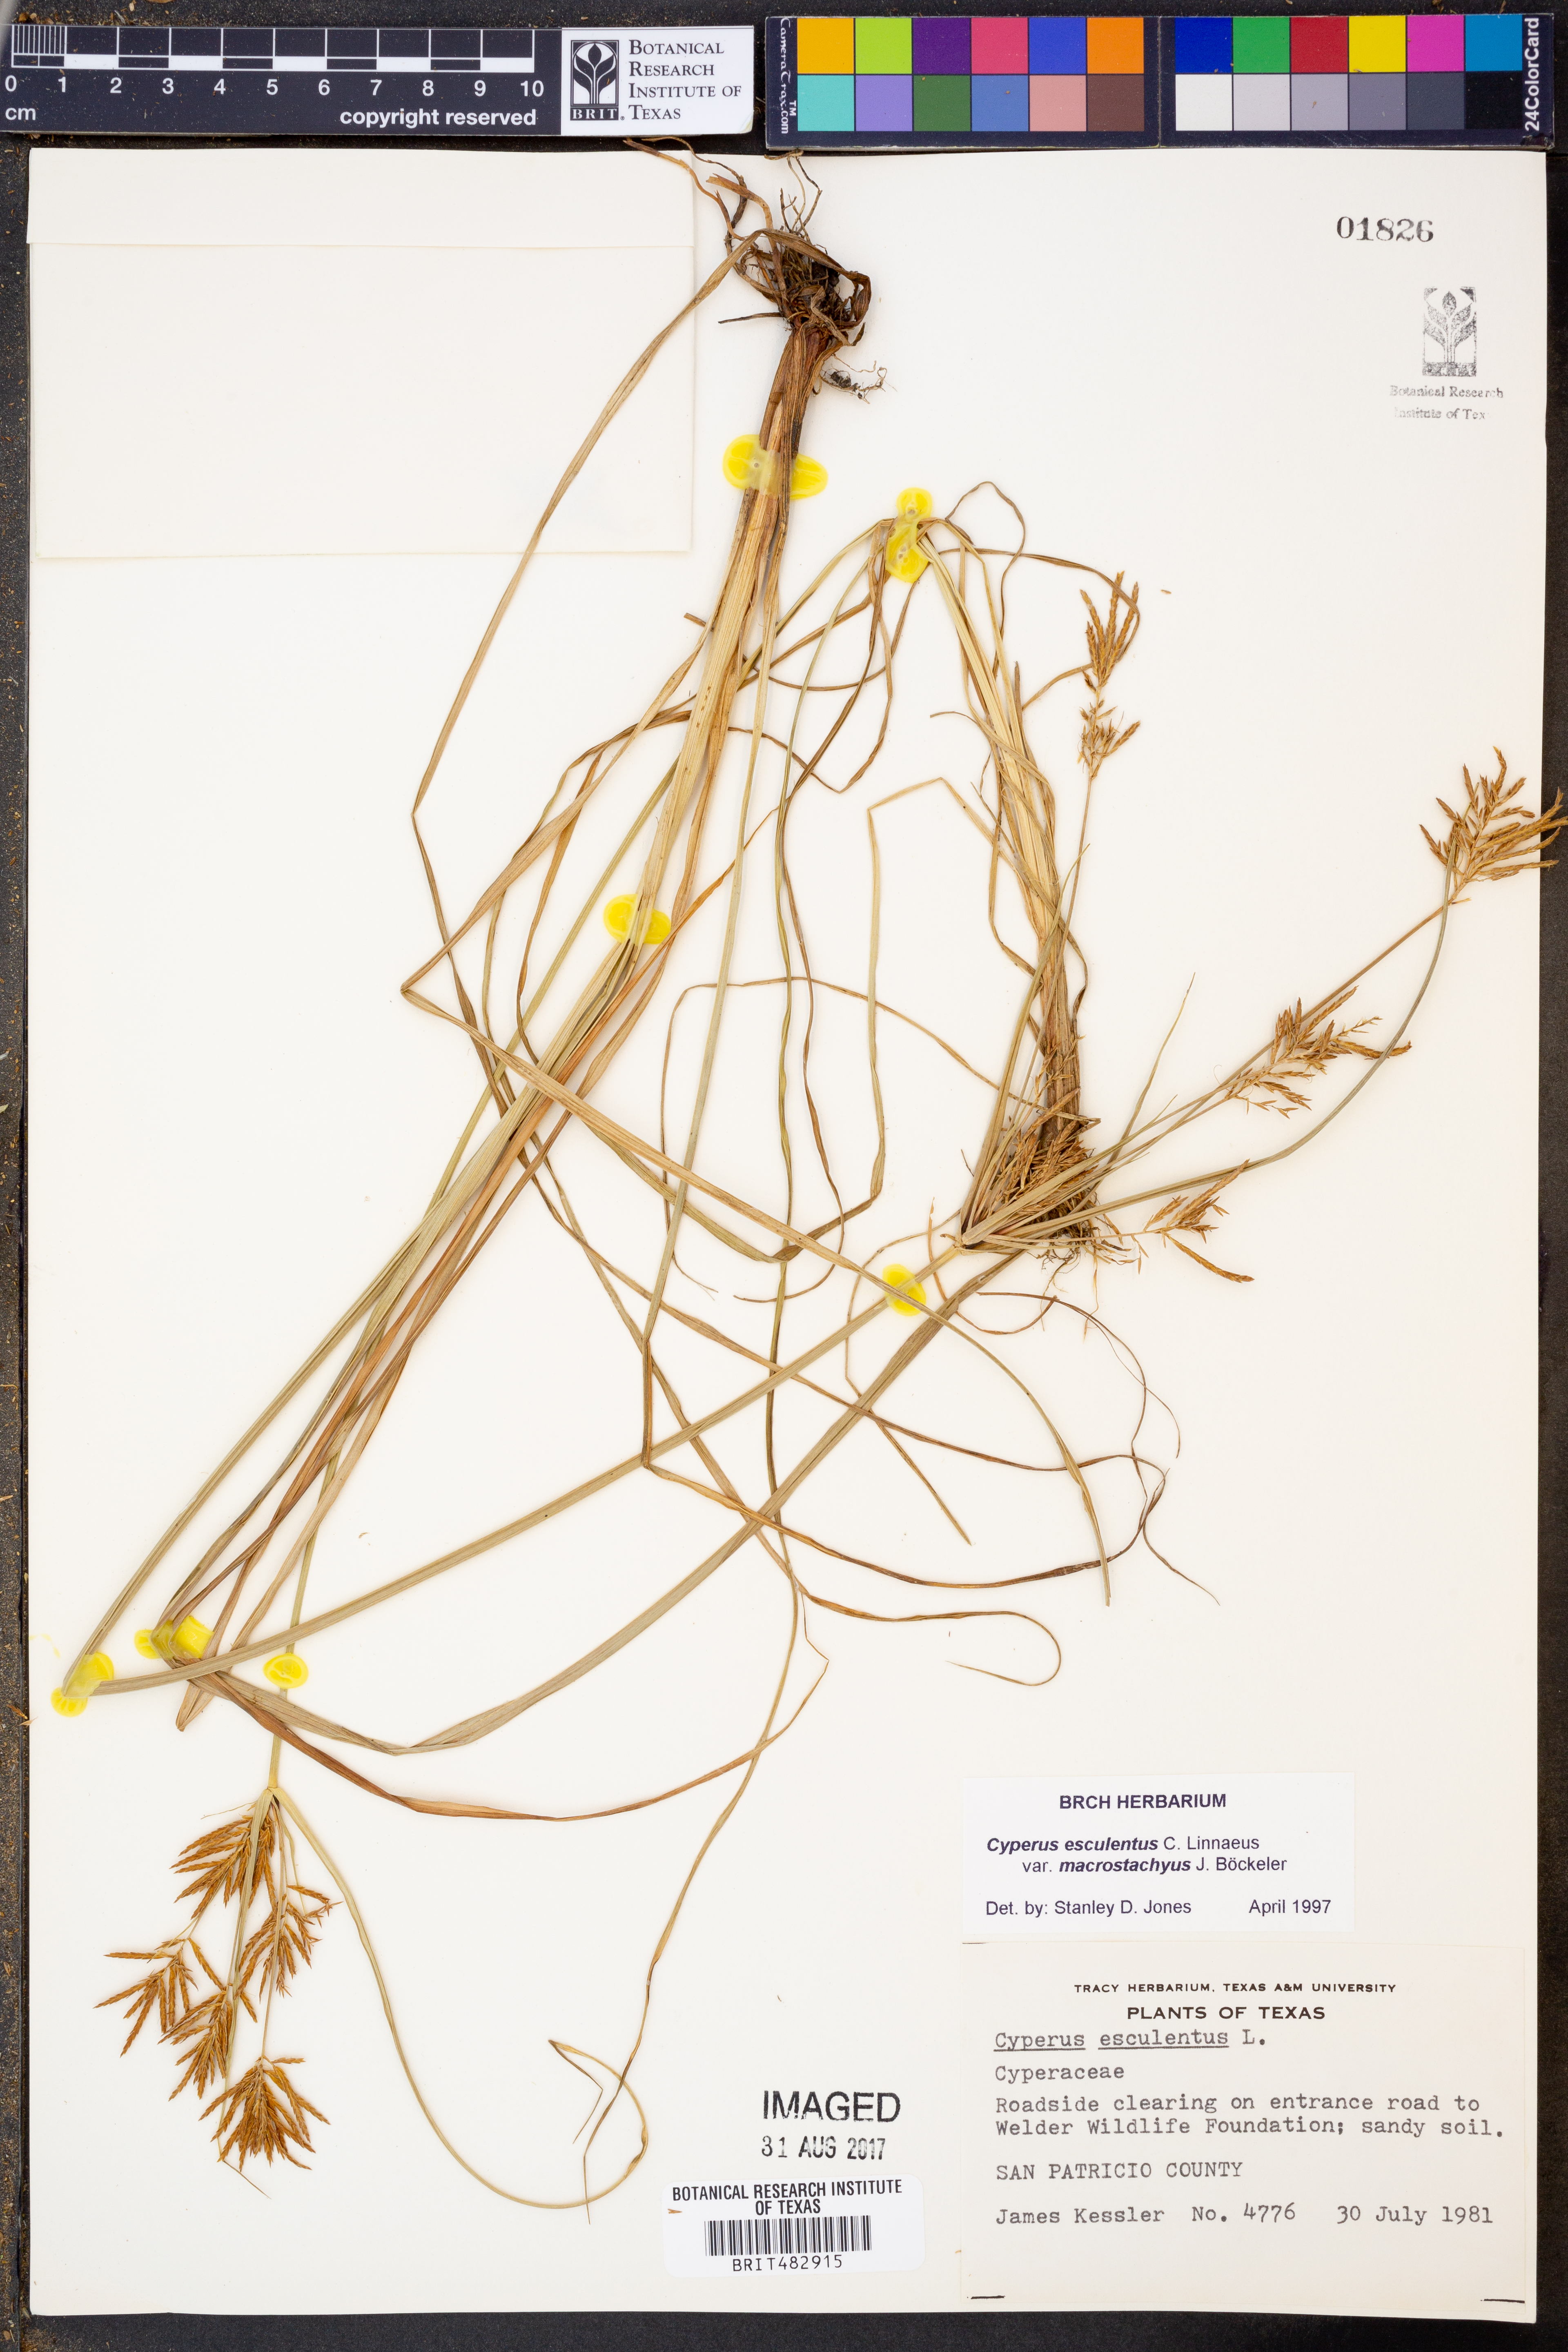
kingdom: Plantae
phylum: Tracheophyta
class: Liliopsida
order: Poales
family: Cyperaceae
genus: Cyperus
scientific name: Cyperus esculentus
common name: Yellow nutsedge
